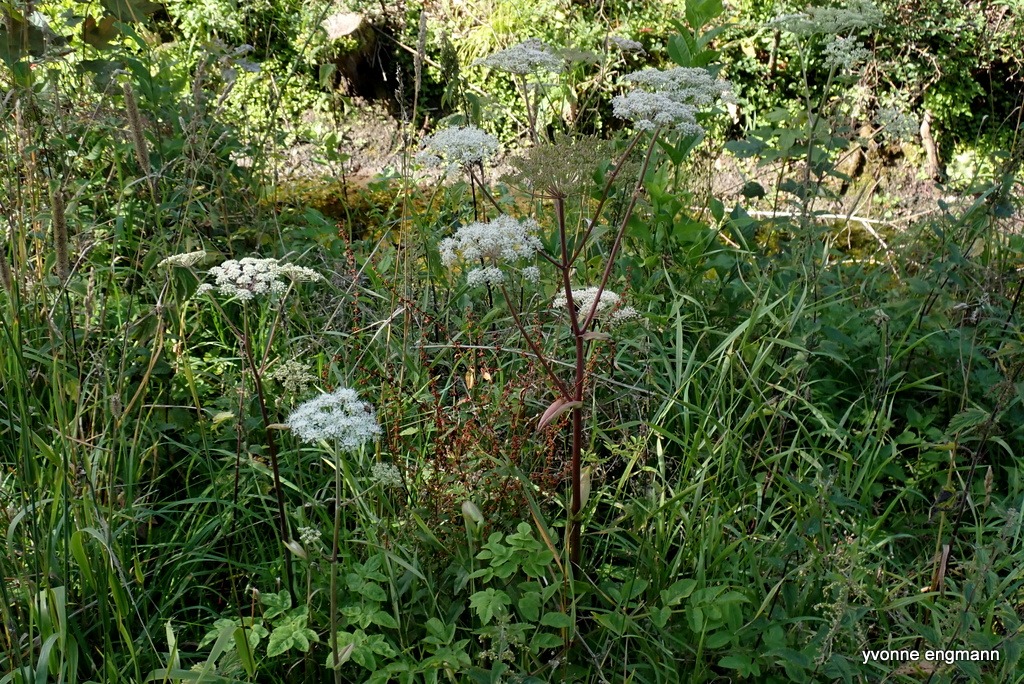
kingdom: Plantae
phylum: Tracheophyta
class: Magnoliopsida
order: Apiales
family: Apiaceae
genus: Angelica
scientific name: Angelica sylvestris
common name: Angelik
